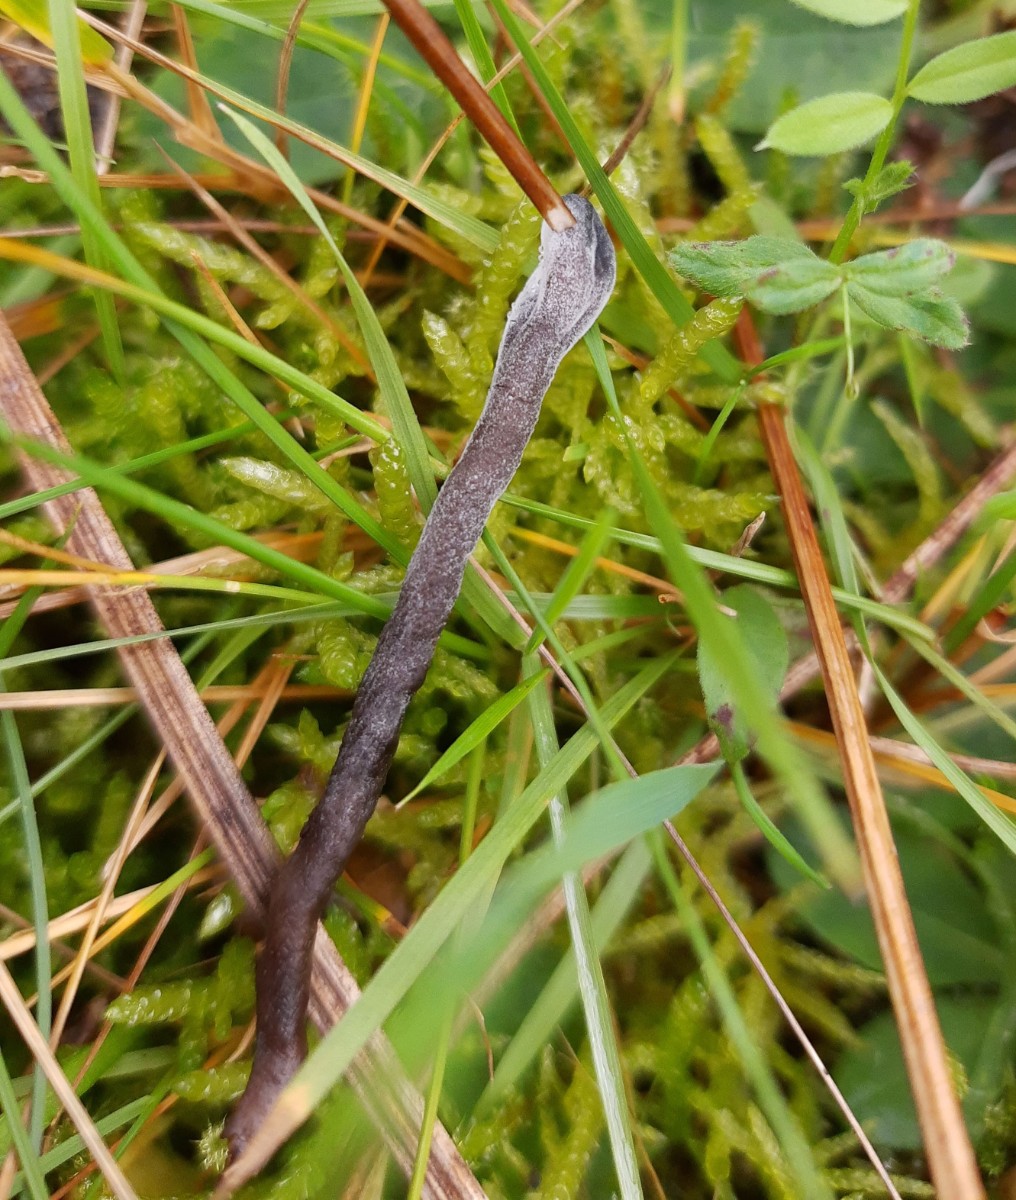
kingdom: Fungi
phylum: Ascomycota
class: Sordariomycetes
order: Hypocreales
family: Hypocreaceae
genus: Hypomyces
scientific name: Hypomyces papulasporae
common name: jordtunge-snylteskorpe
